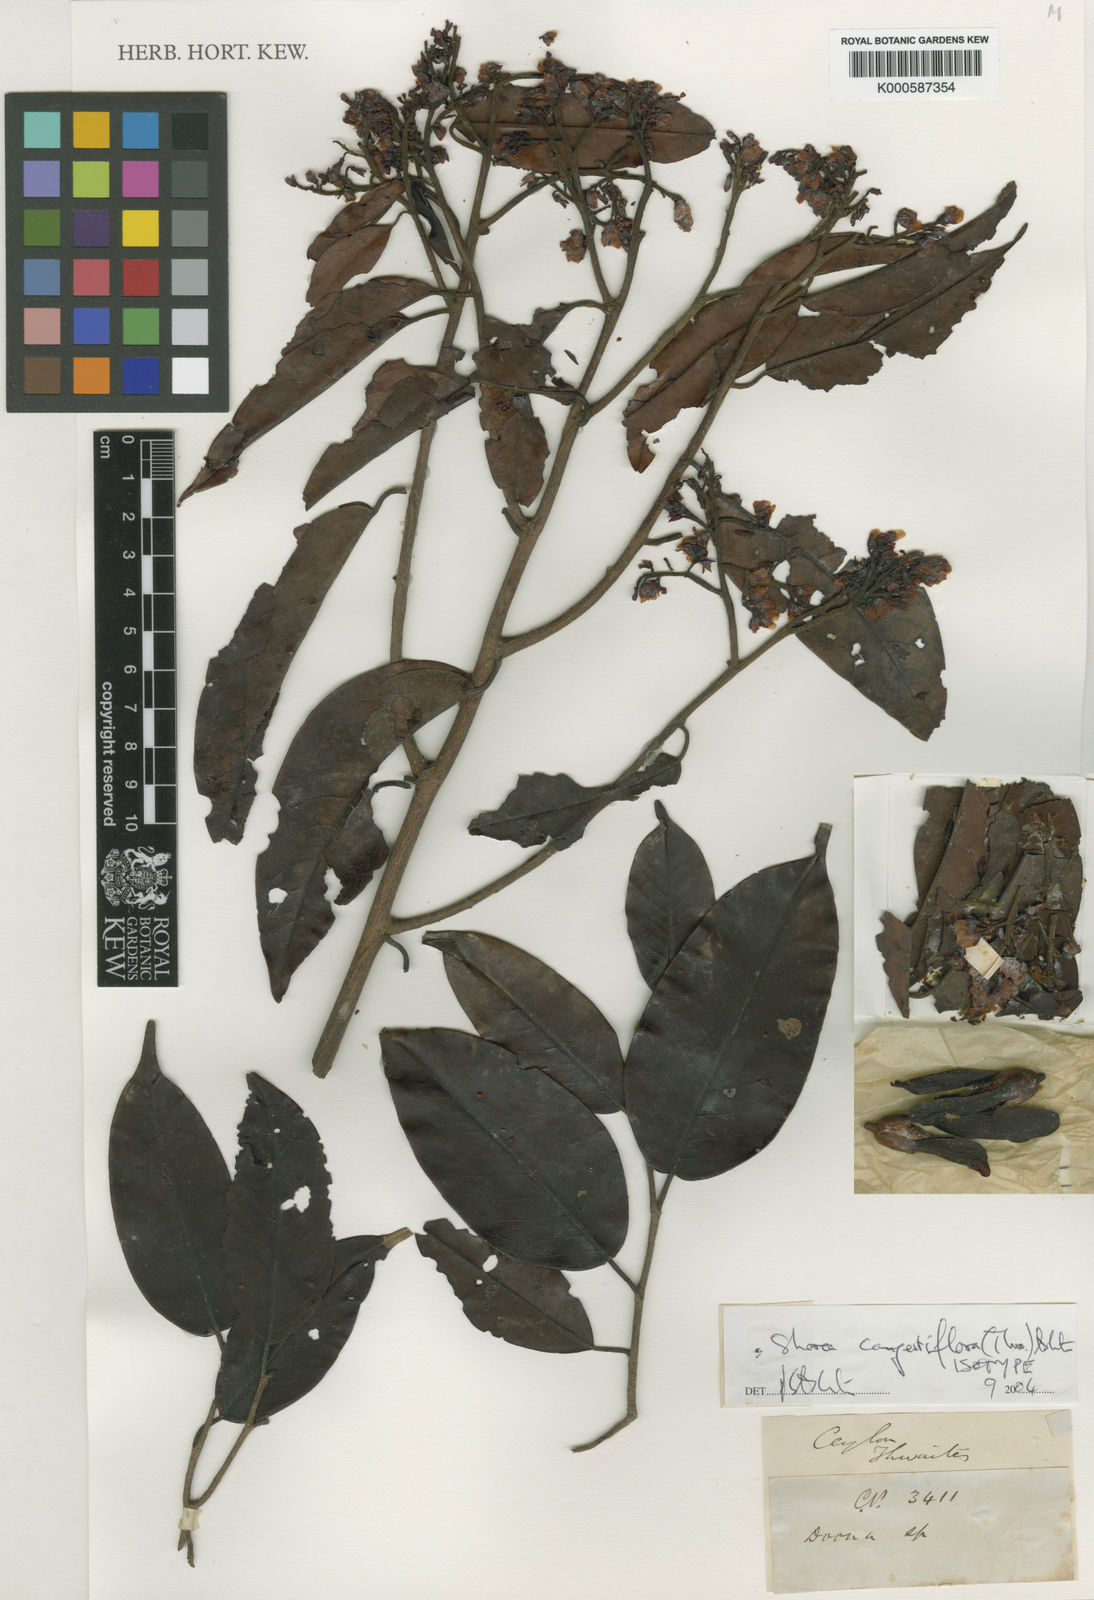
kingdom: Plantae
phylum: Tracheophyta
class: Magnoliopsida
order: Malvales
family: Dipterocarpaceae
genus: Doona
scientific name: Doona congestiflora
